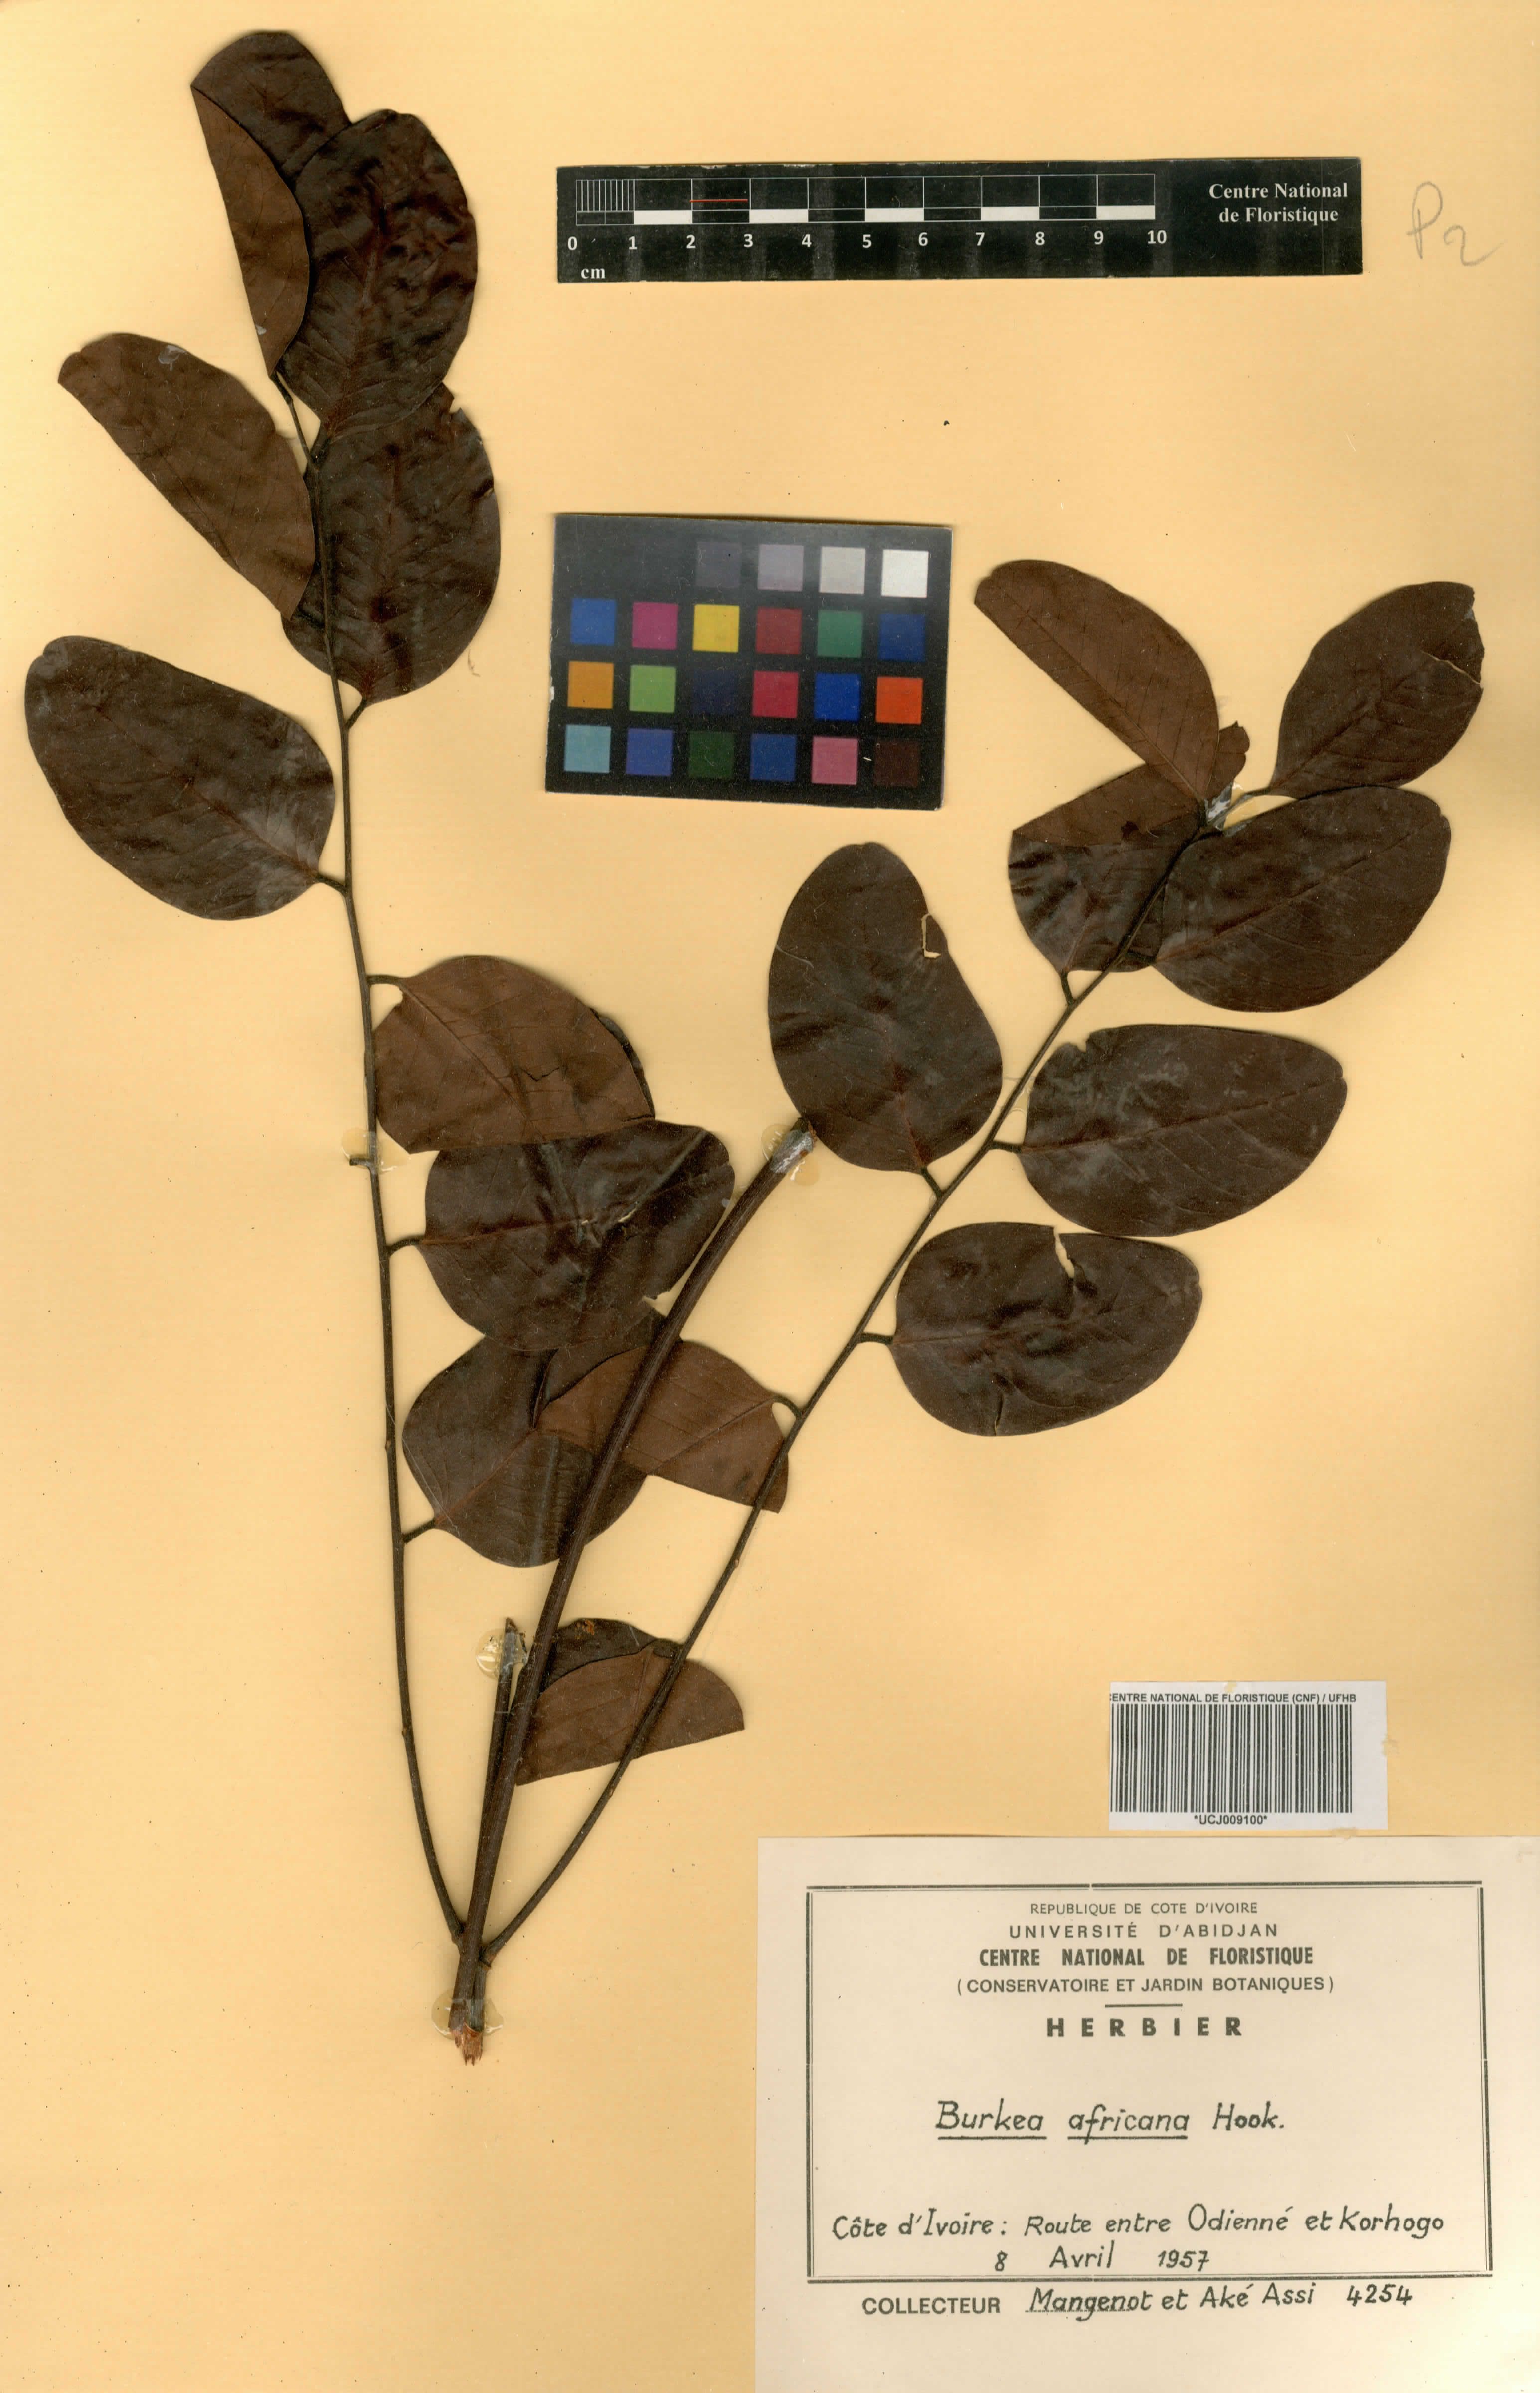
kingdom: Plantae
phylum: Tracheophyta
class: Magnoliopsida
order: Fabales
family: Fabaceae
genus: Burkea
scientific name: Burkea africana
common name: Mkalati tree
